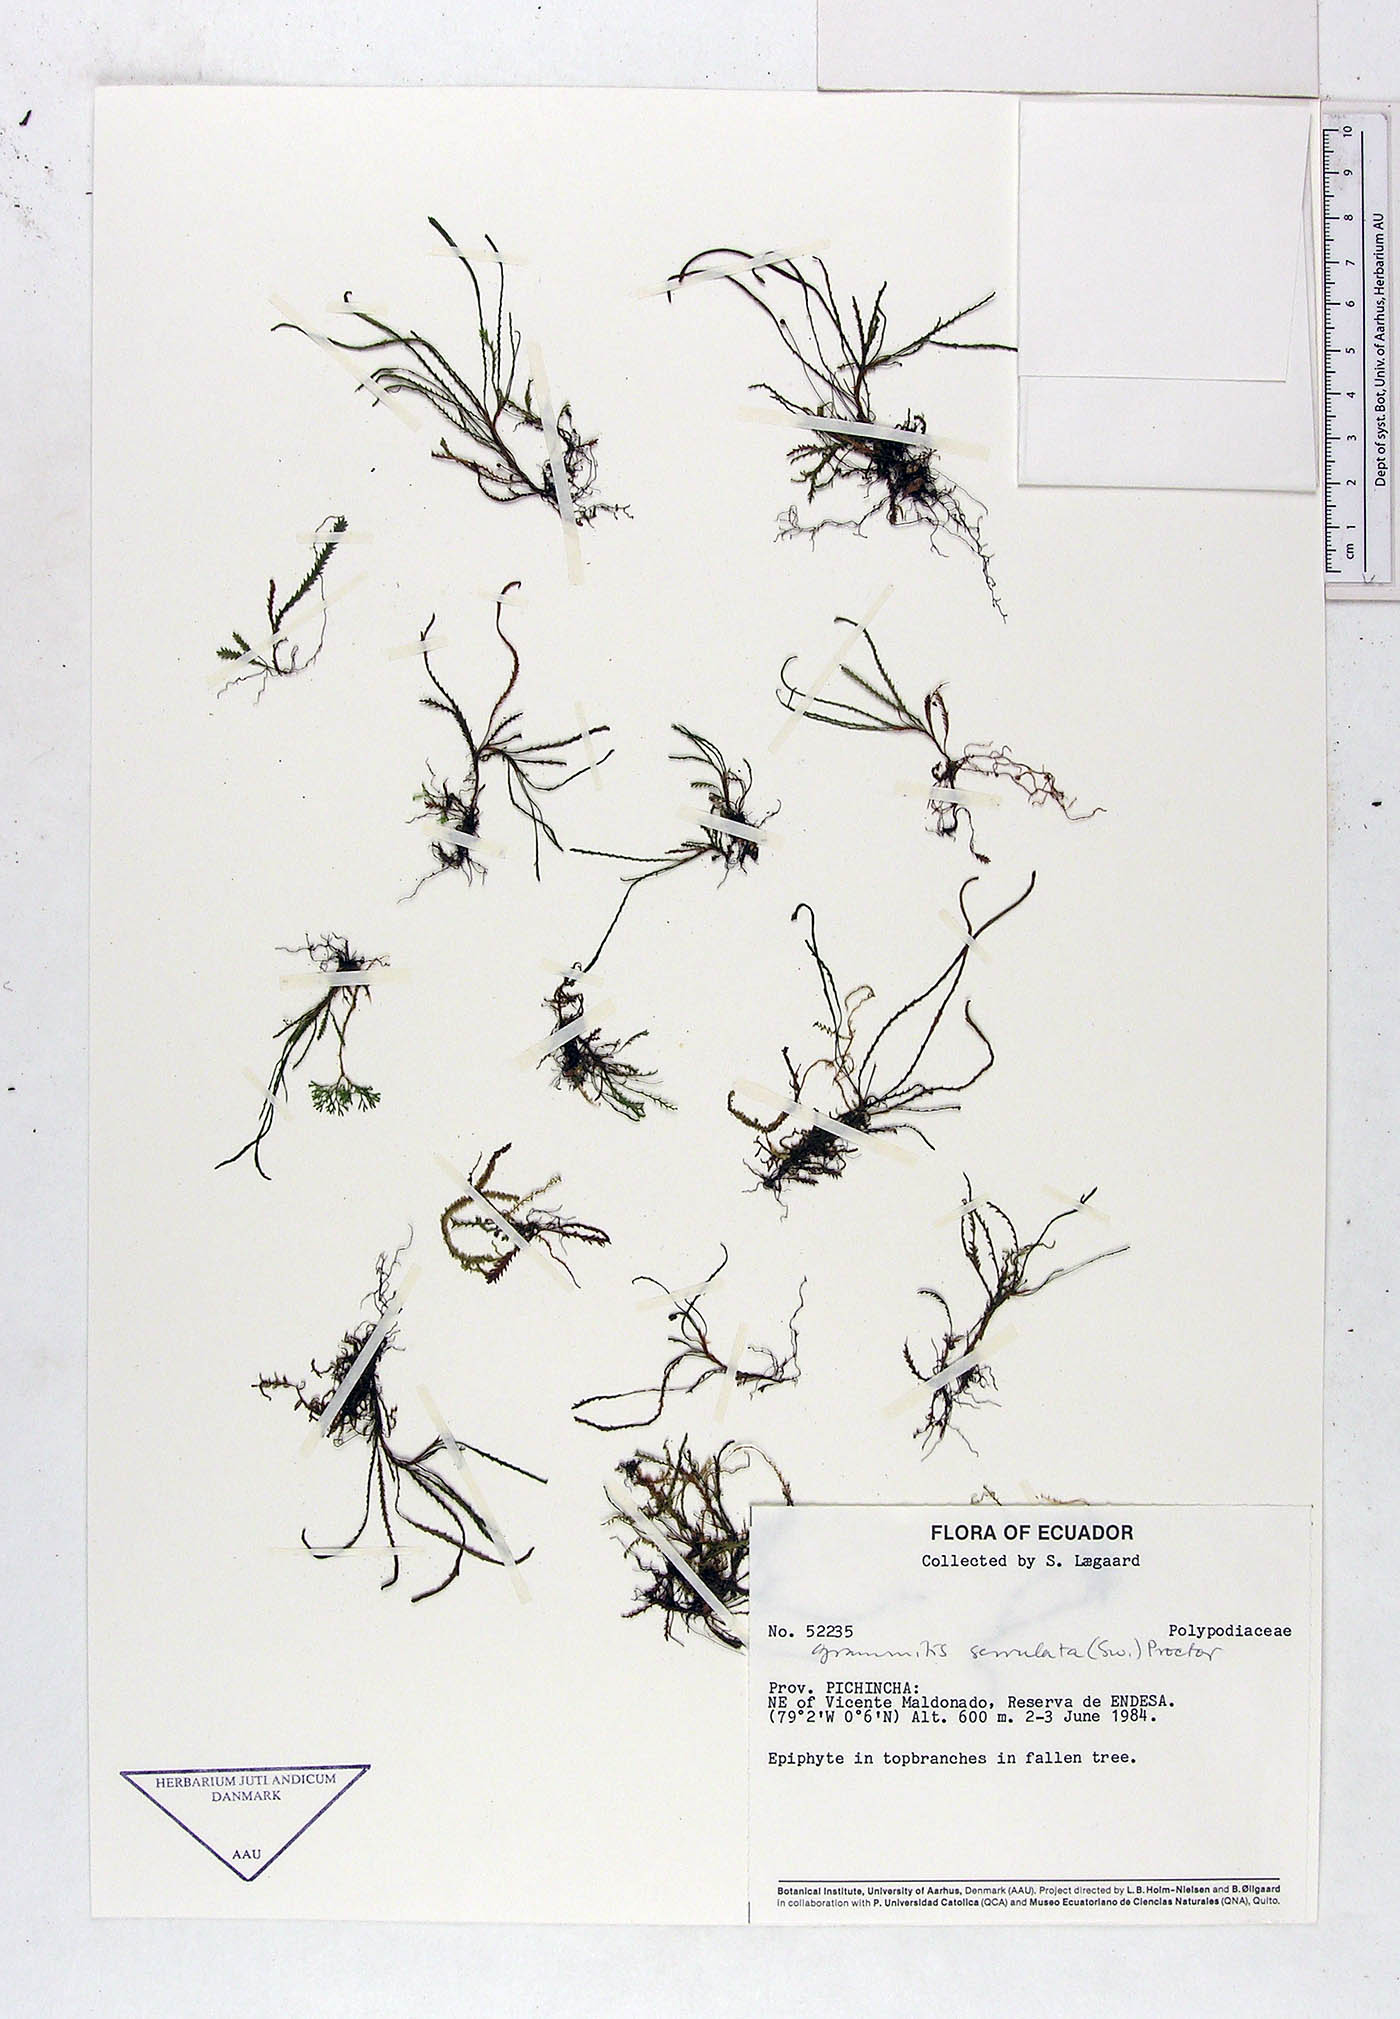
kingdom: Plantae
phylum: Tracheophyta
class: Polypodiopsida
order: Polypodiales
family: Polypodiaceae
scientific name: Polypodiaceae
